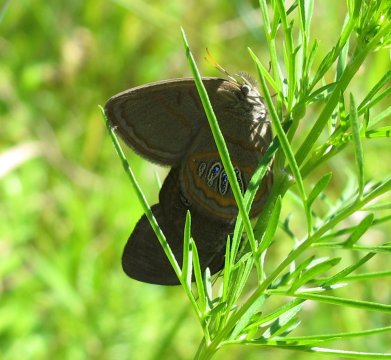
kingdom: Animalia
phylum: Arthropoda
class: Insecta
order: Lepidoptera
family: Nymphalidae
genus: Euptychia
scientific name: Euptychia phocion
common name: Georgia Satyr
